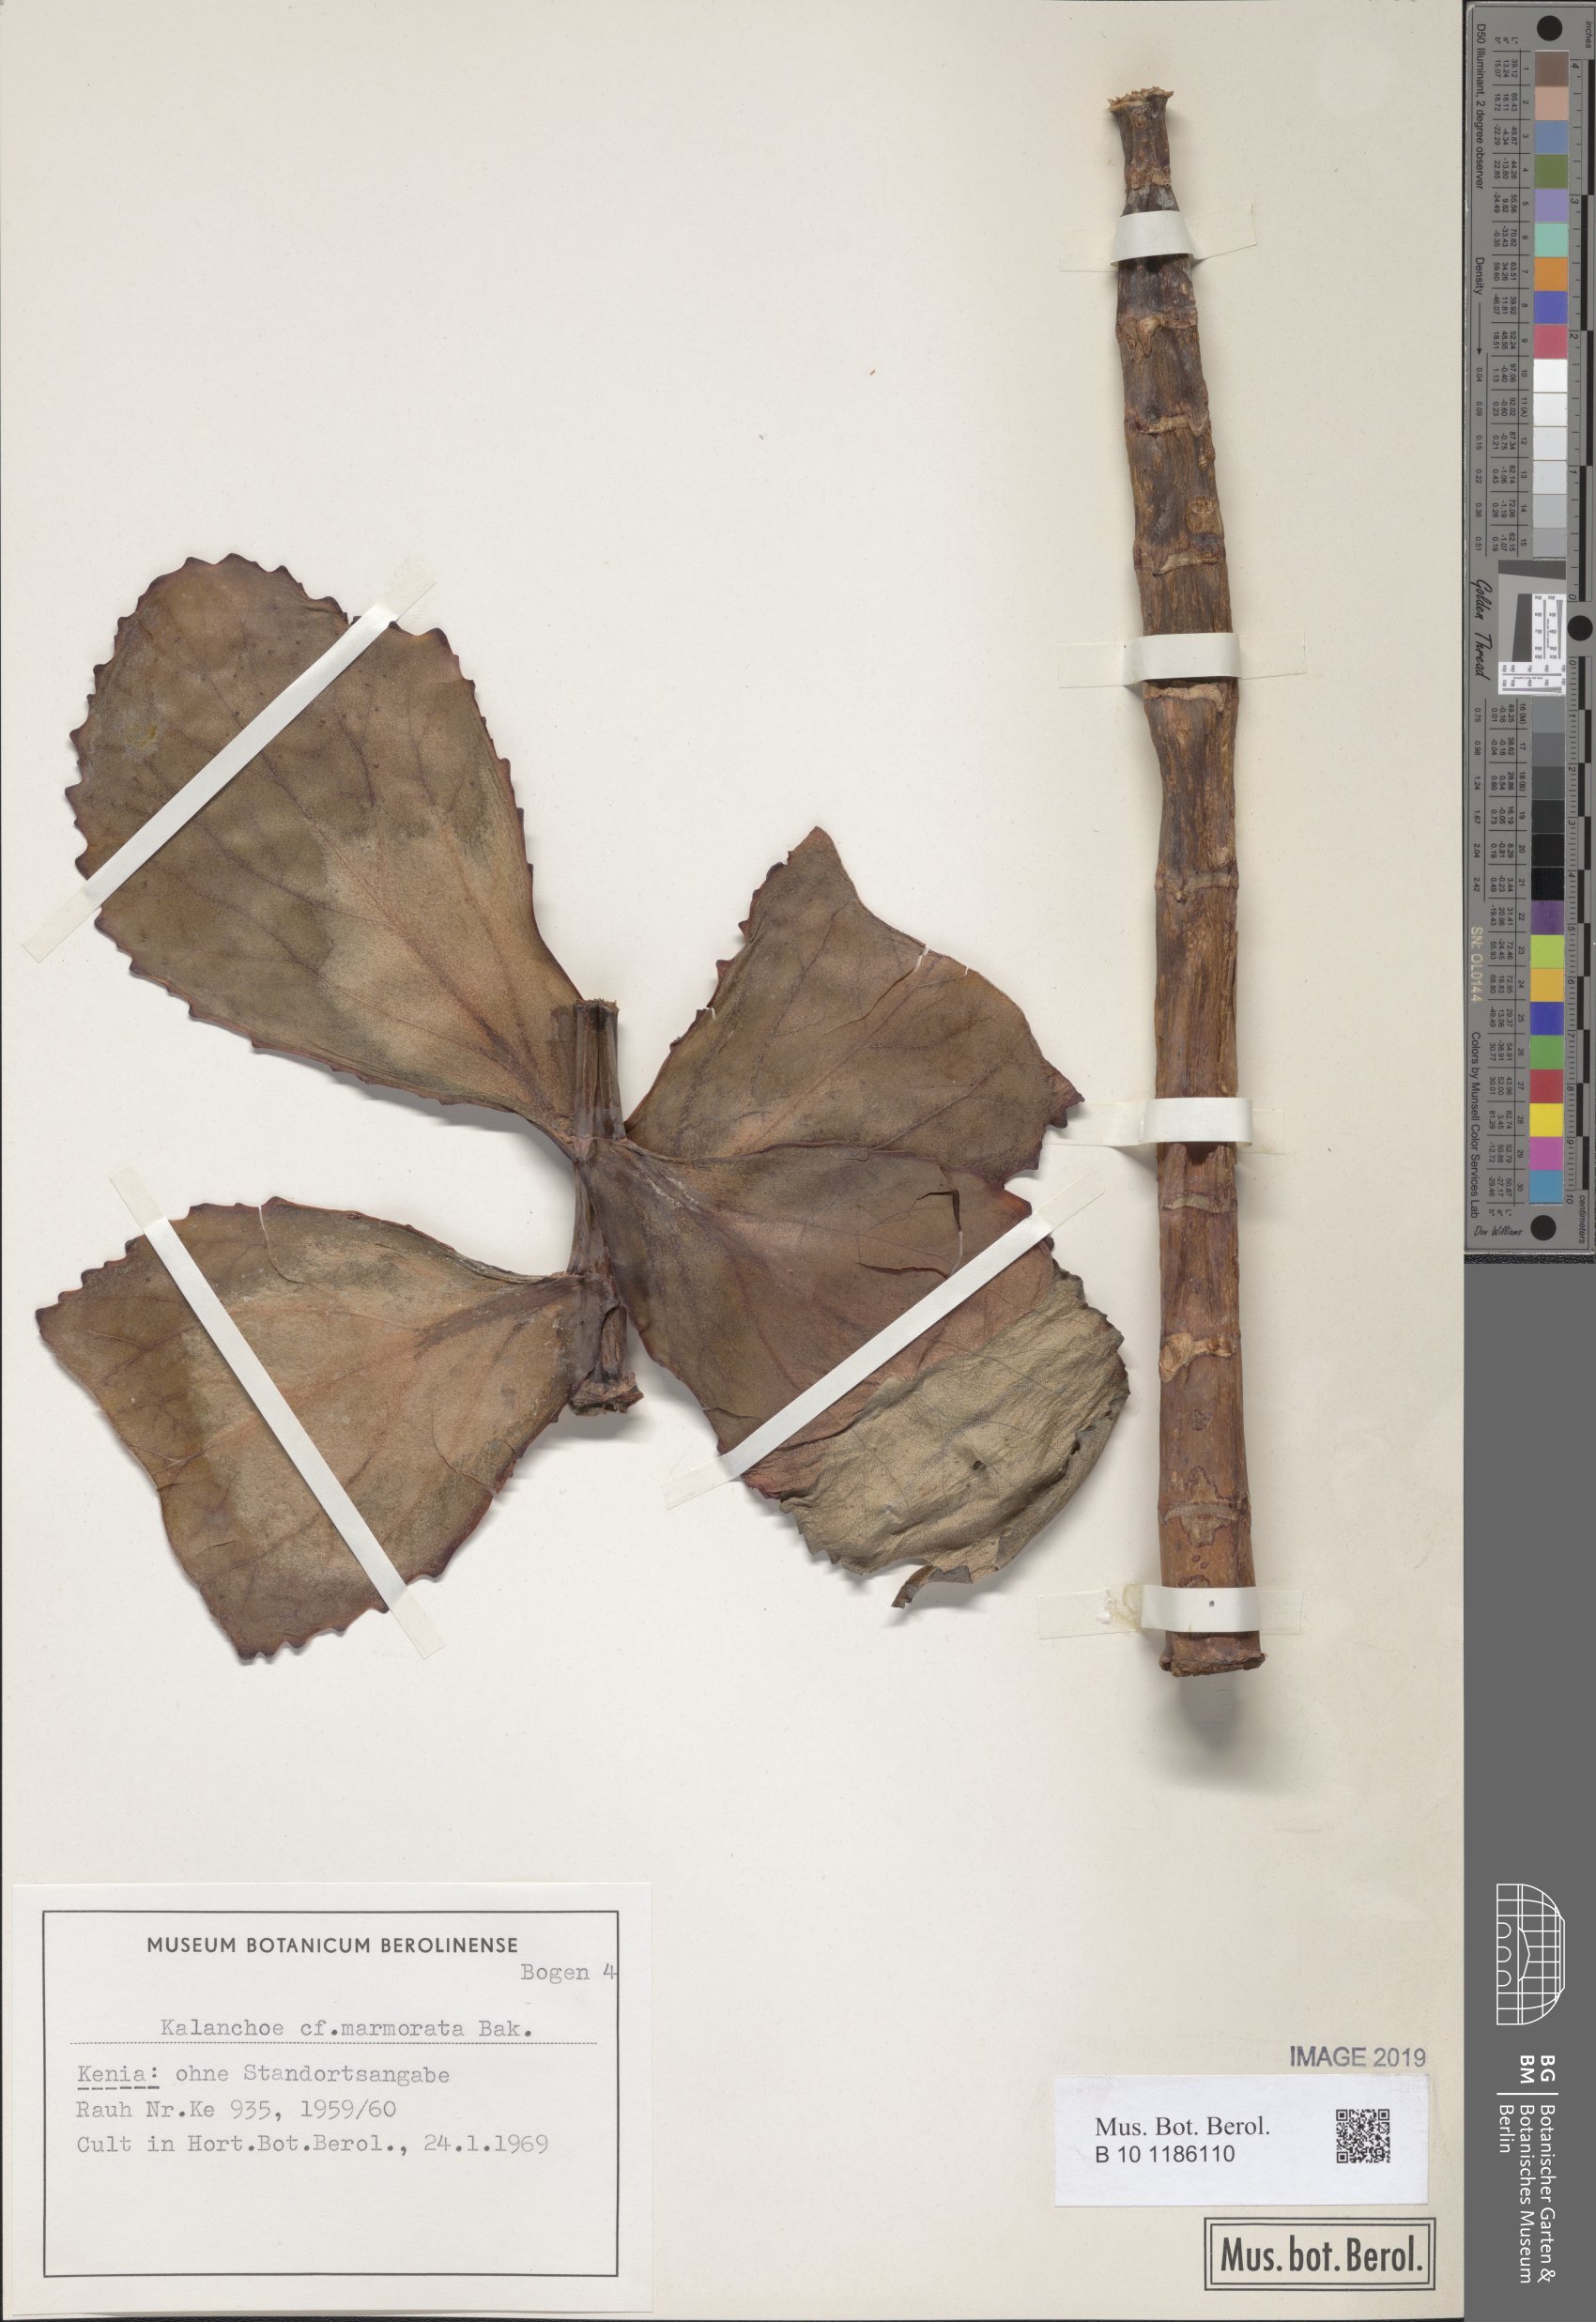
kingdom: Plantae
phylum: Tracheophyta
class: Magnoliopsida
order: Saxifragales
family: Crassulaceae
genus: Kalanchoe
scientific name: Kalanchoe marmorata
